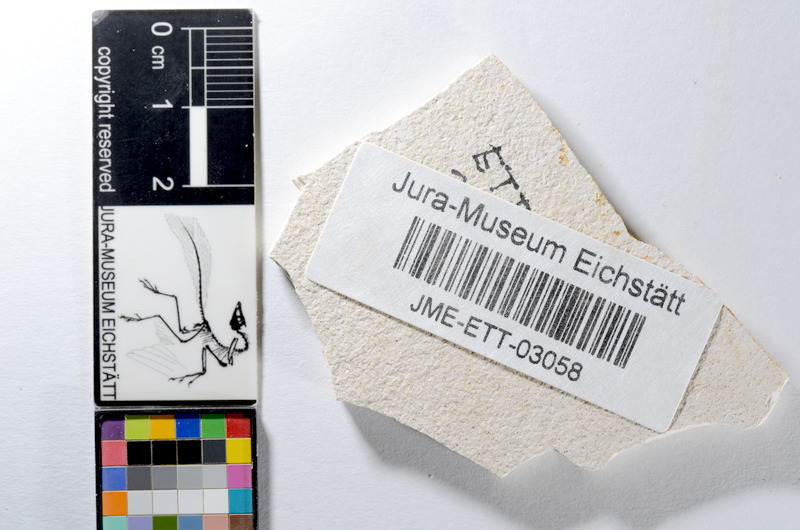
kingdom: Animalia
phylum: Chordata
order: Salmoniformes
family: Orthogonikleithridae
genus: Orthogonikleithrus
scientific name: Orthogonikleithrus hoelli
